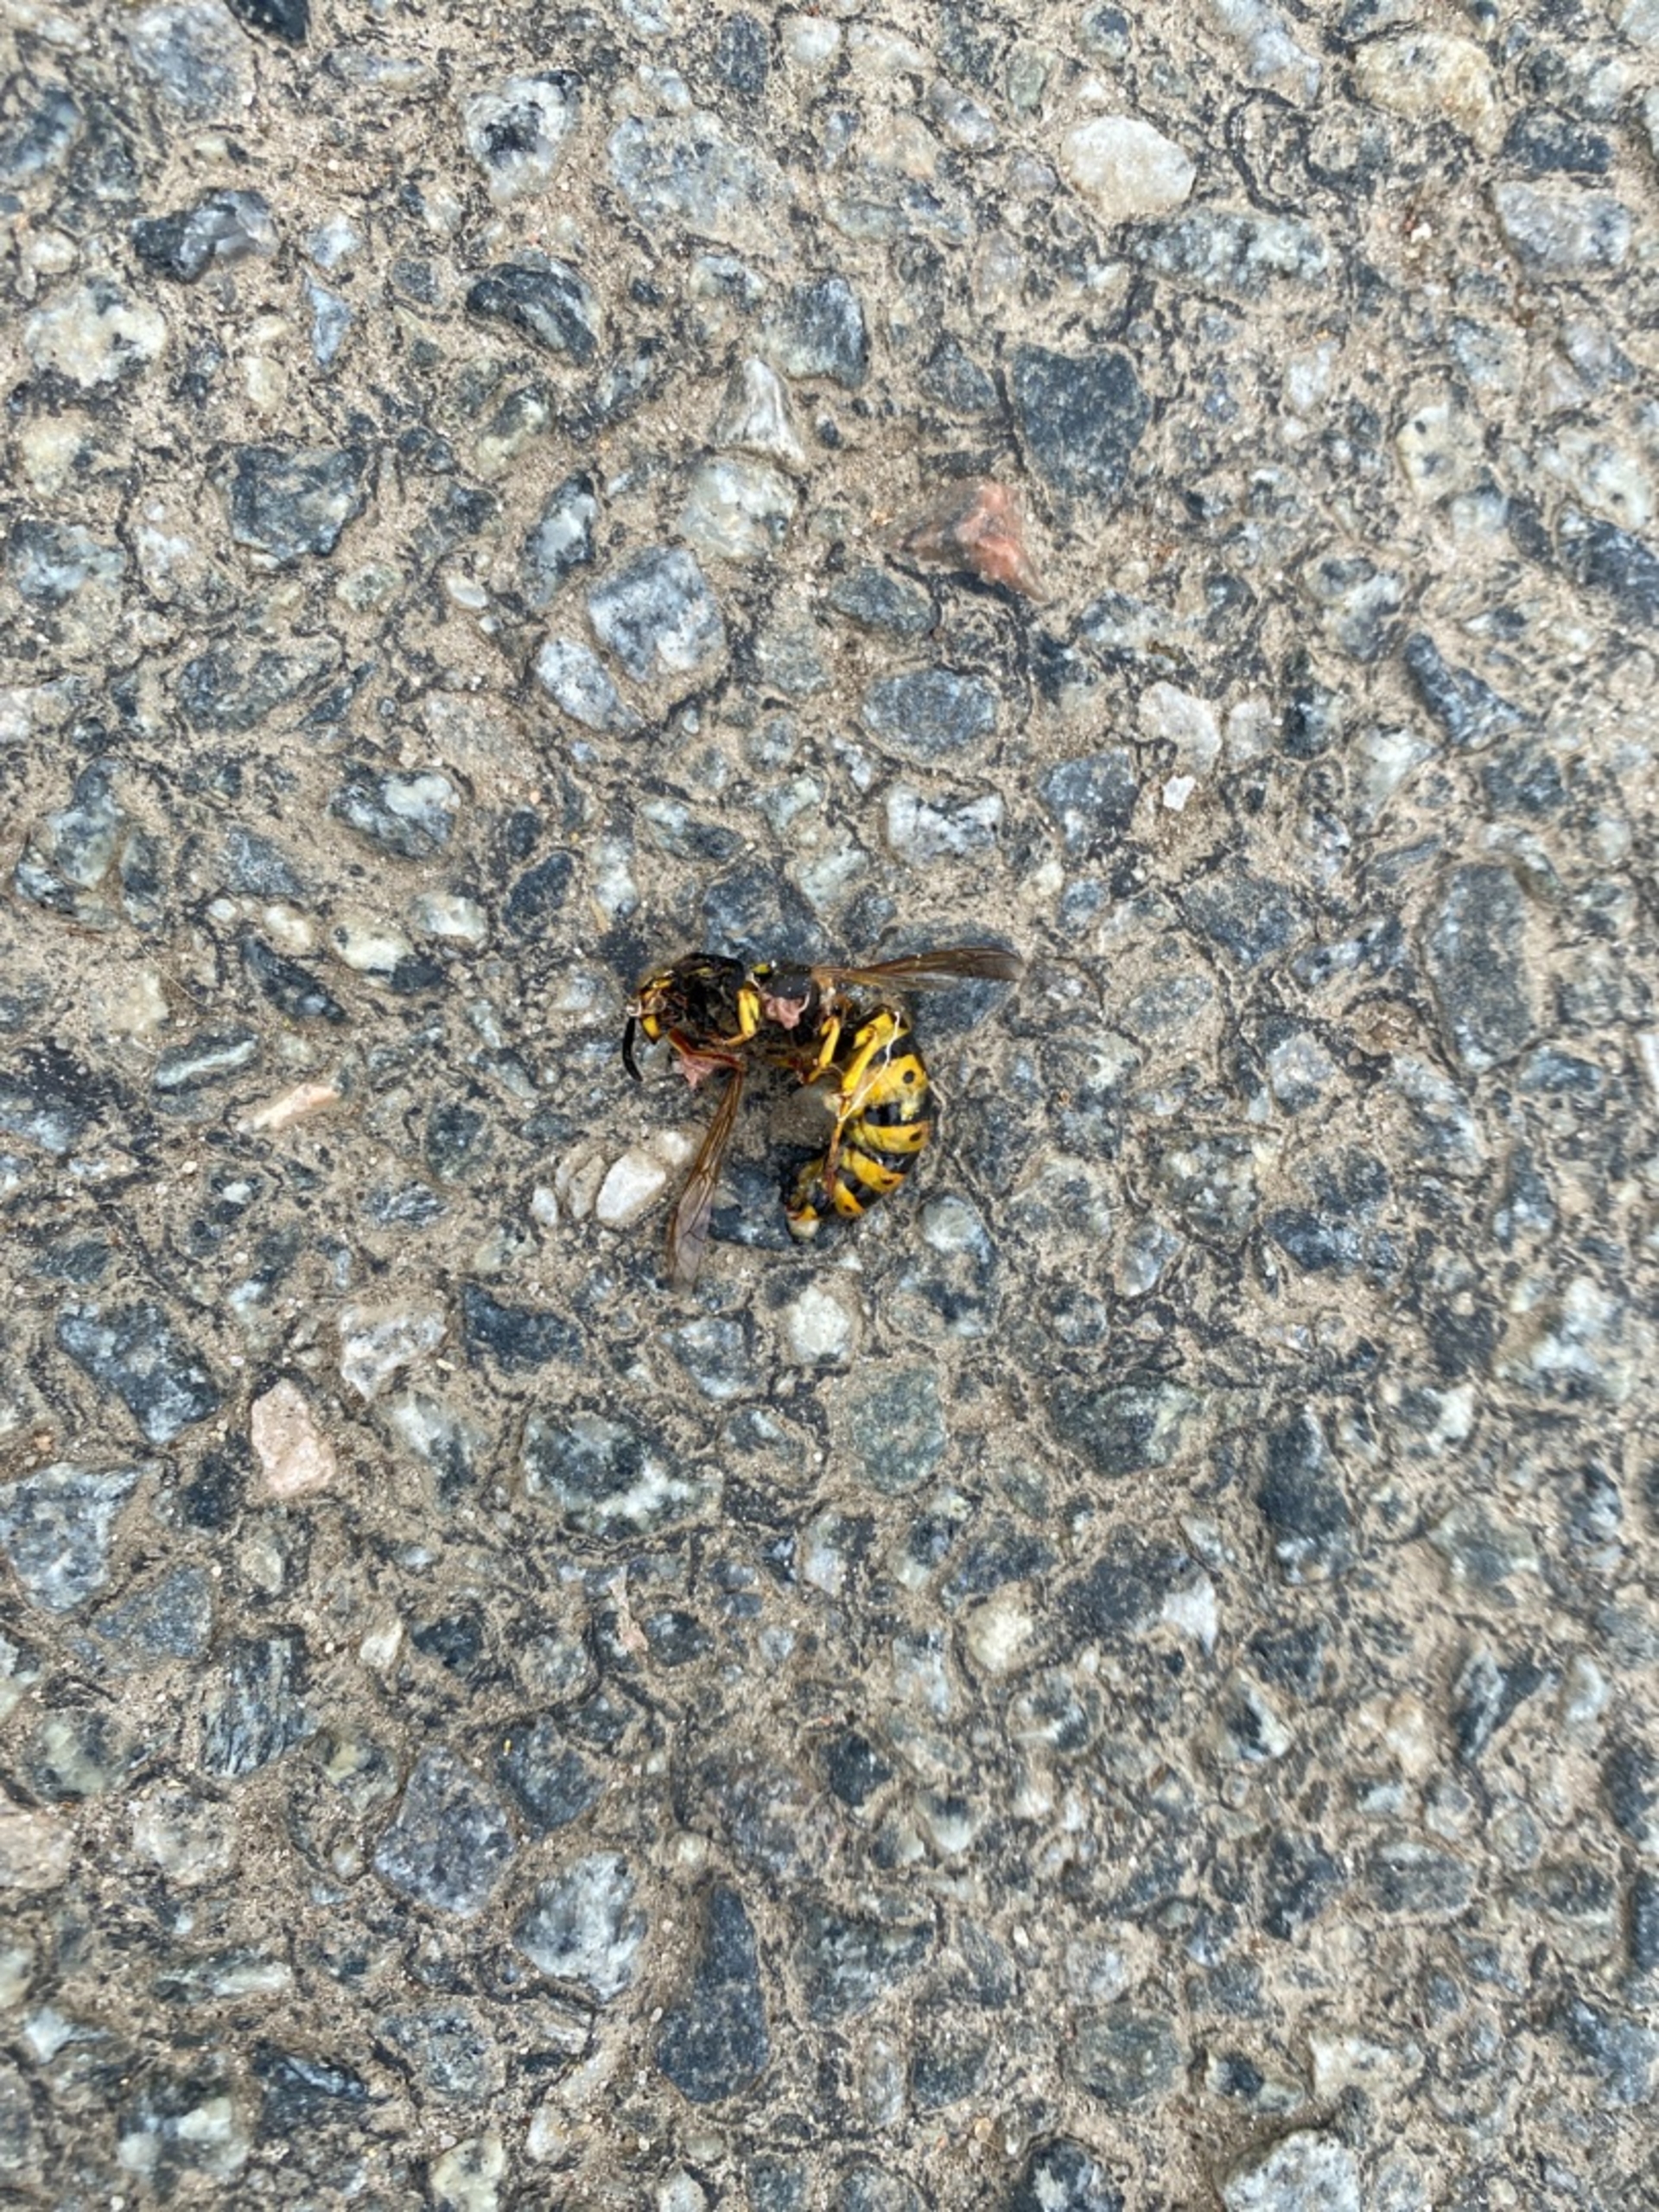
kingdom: Animalia
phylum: Arthropoda
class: Insecta
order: Hymenoptera
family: Vespidae
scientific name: Vespidae
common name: Gedehamse
